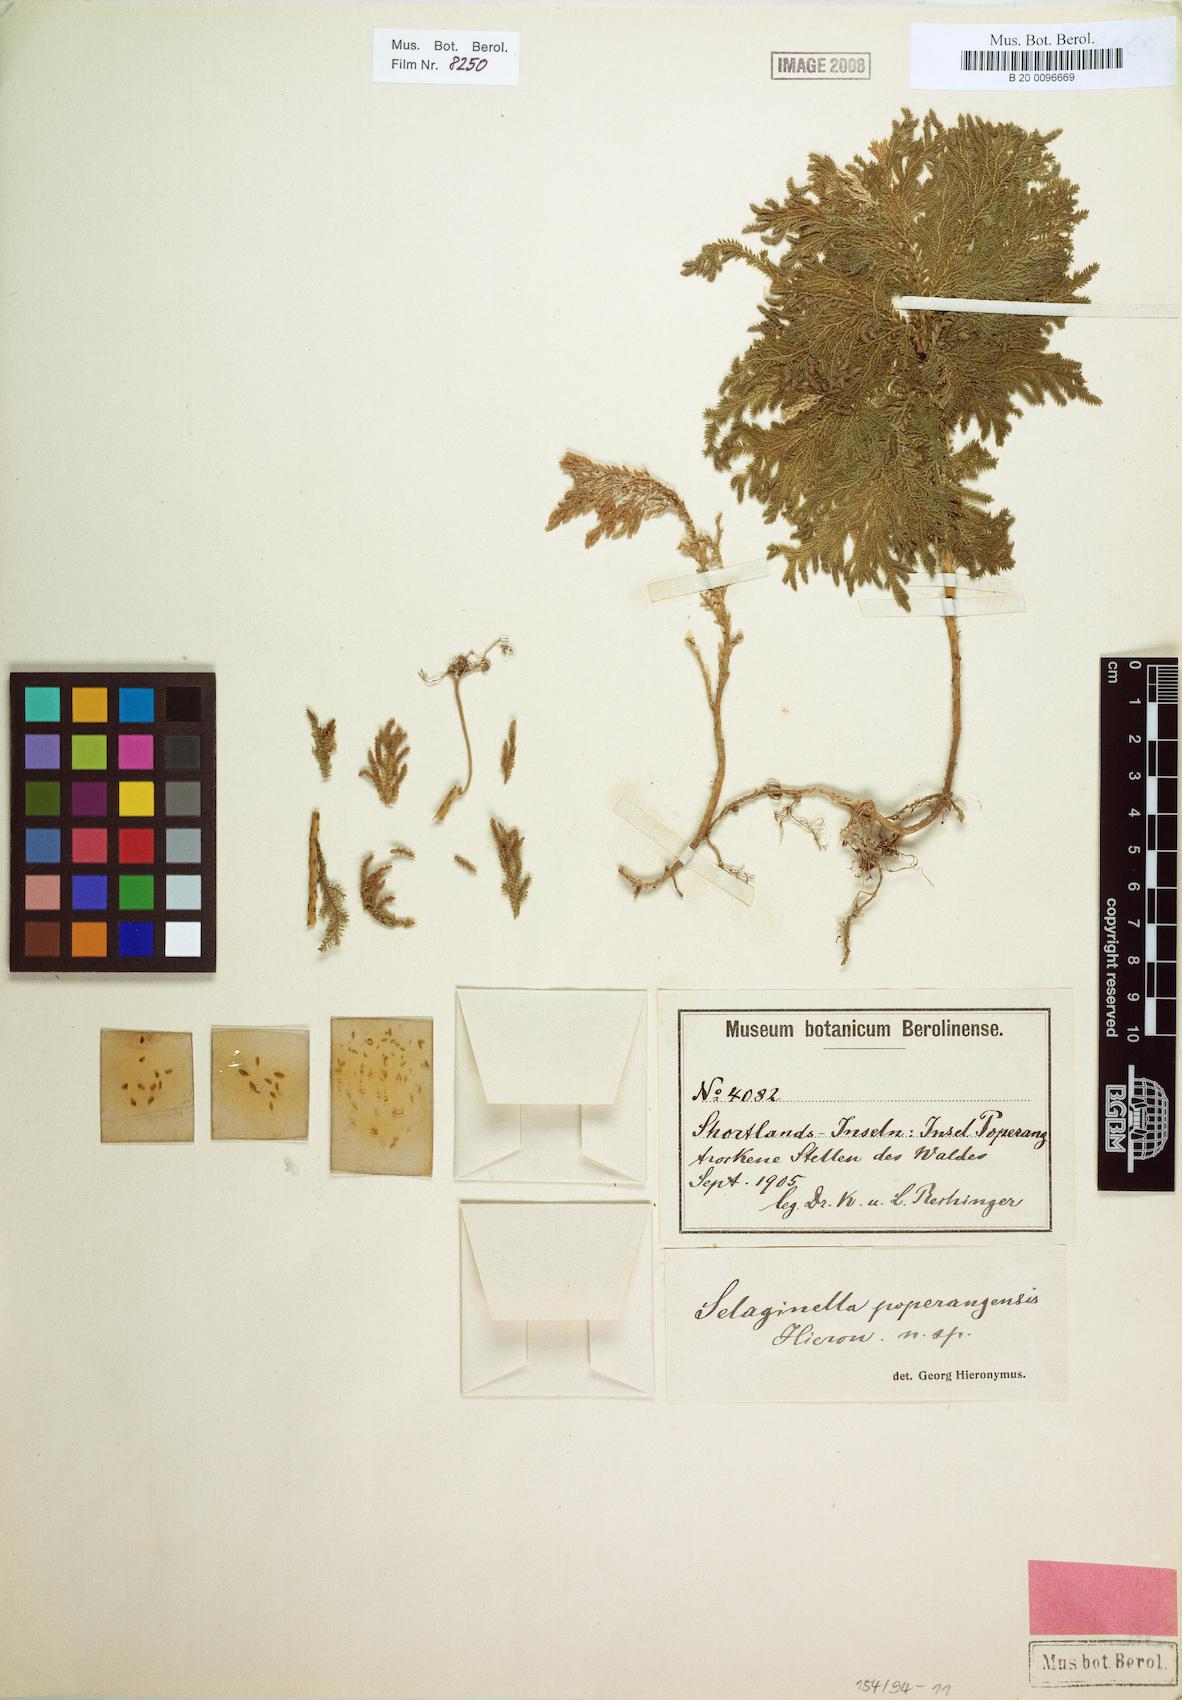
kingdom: Plantae
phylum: Tracheophyta
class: Lycopodiopsida
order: Selaginellales
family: Selaginellaceae
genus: Selaginella
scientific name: Selaginella poperangensis
